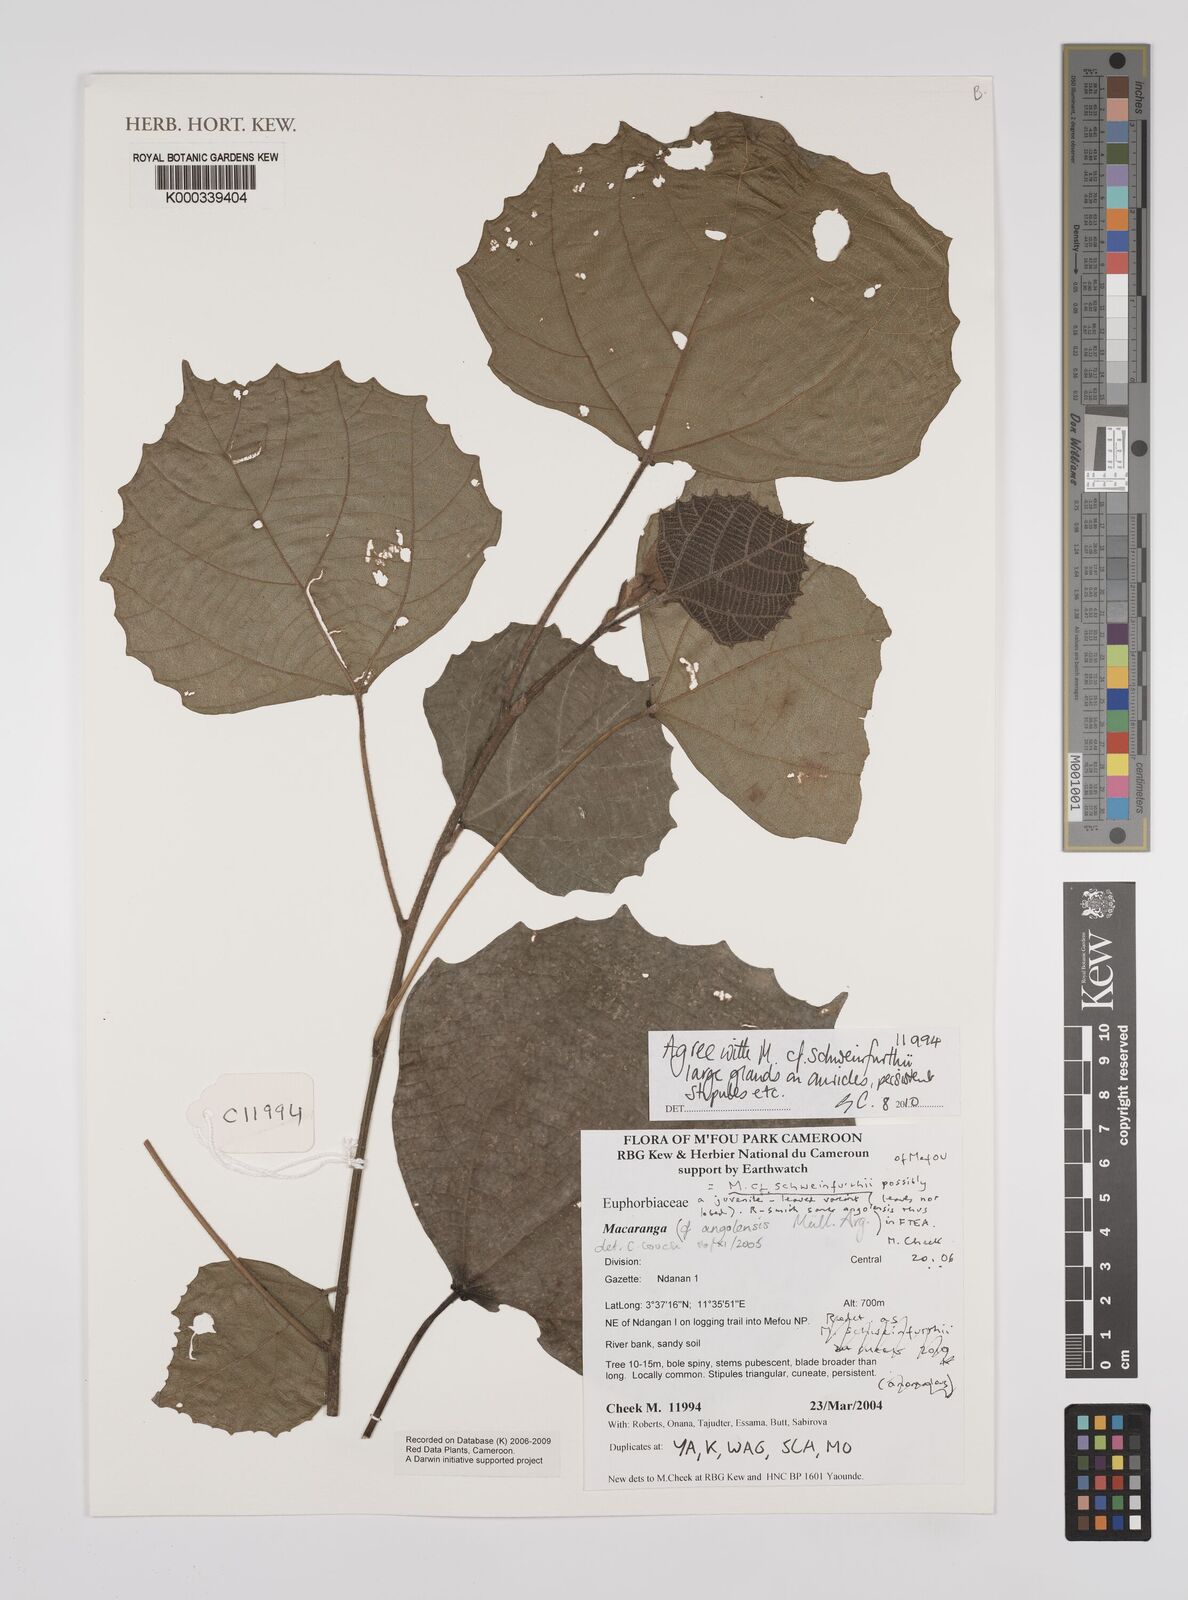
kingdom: Plantae
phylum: Tracheophyta
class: Magnoliopsida
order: Malpighiales
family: Euphorbiaceae
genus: Macaranga
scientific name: Macaranga schweinfurthii
